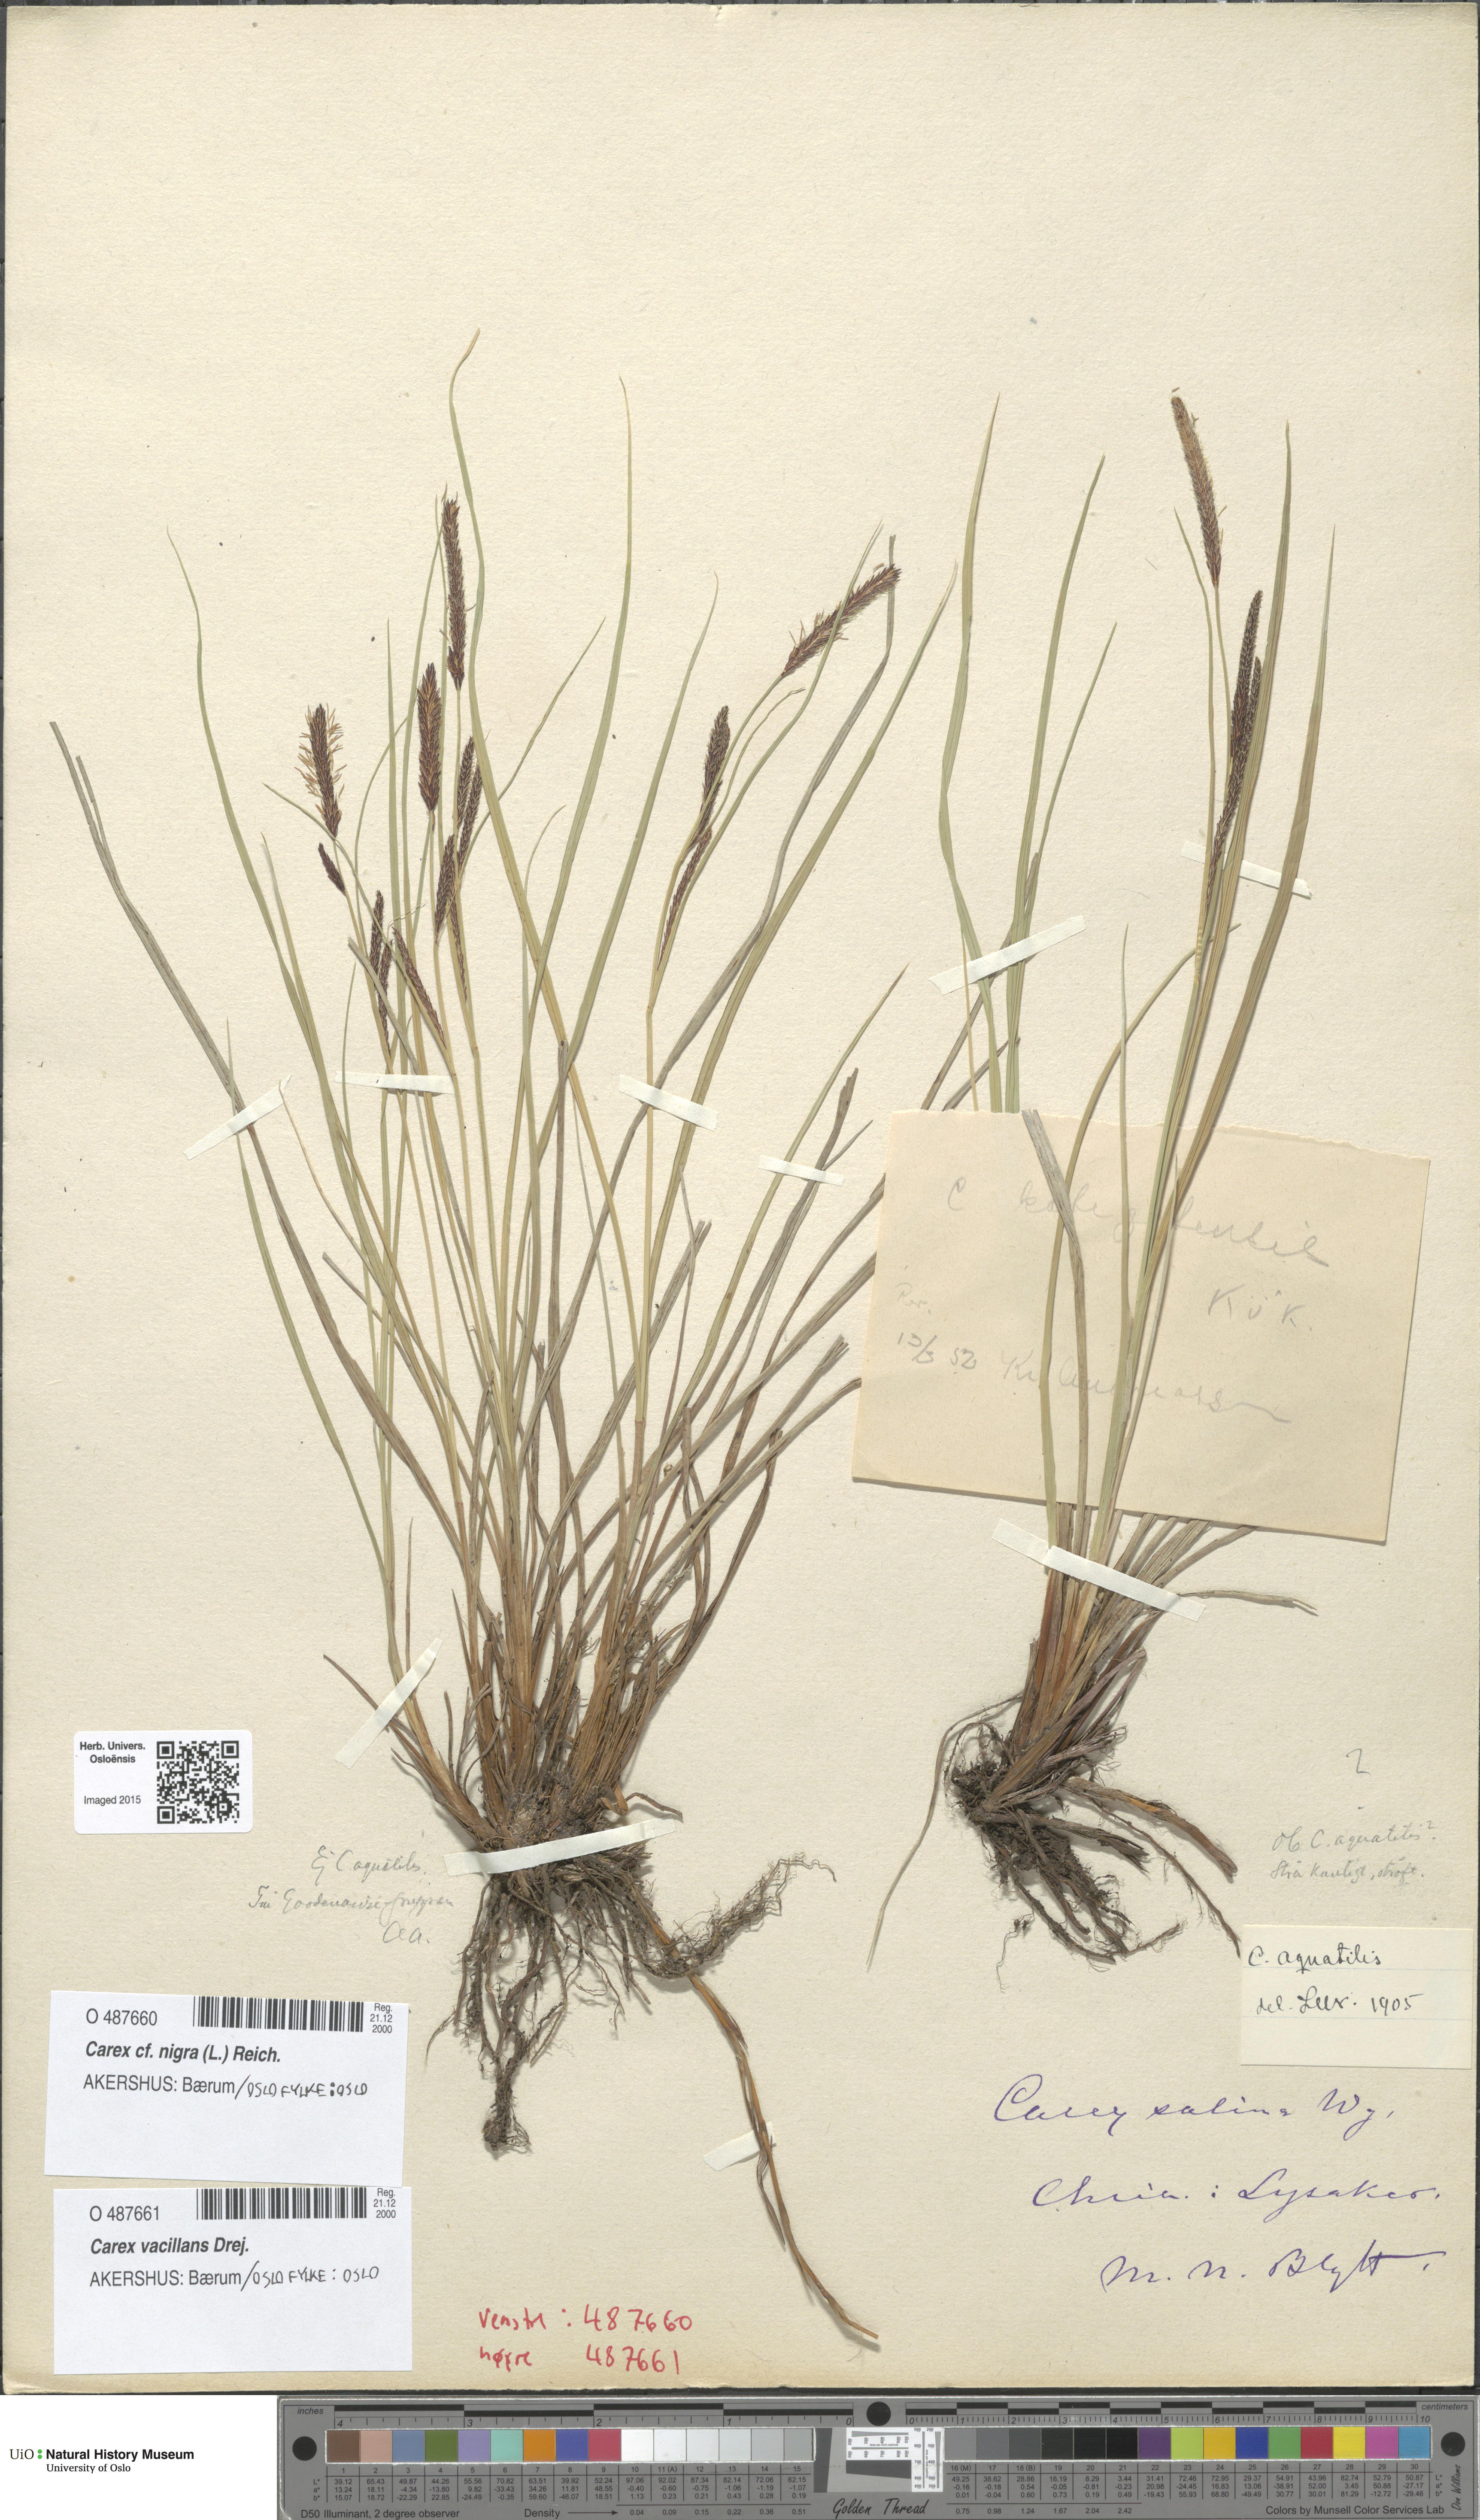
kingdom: Plantae
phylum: Tracheophyta
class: Liliopsida
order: Poales
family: Cyperaceae
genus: Carex
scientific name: Carex vacillans
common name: Sedge
